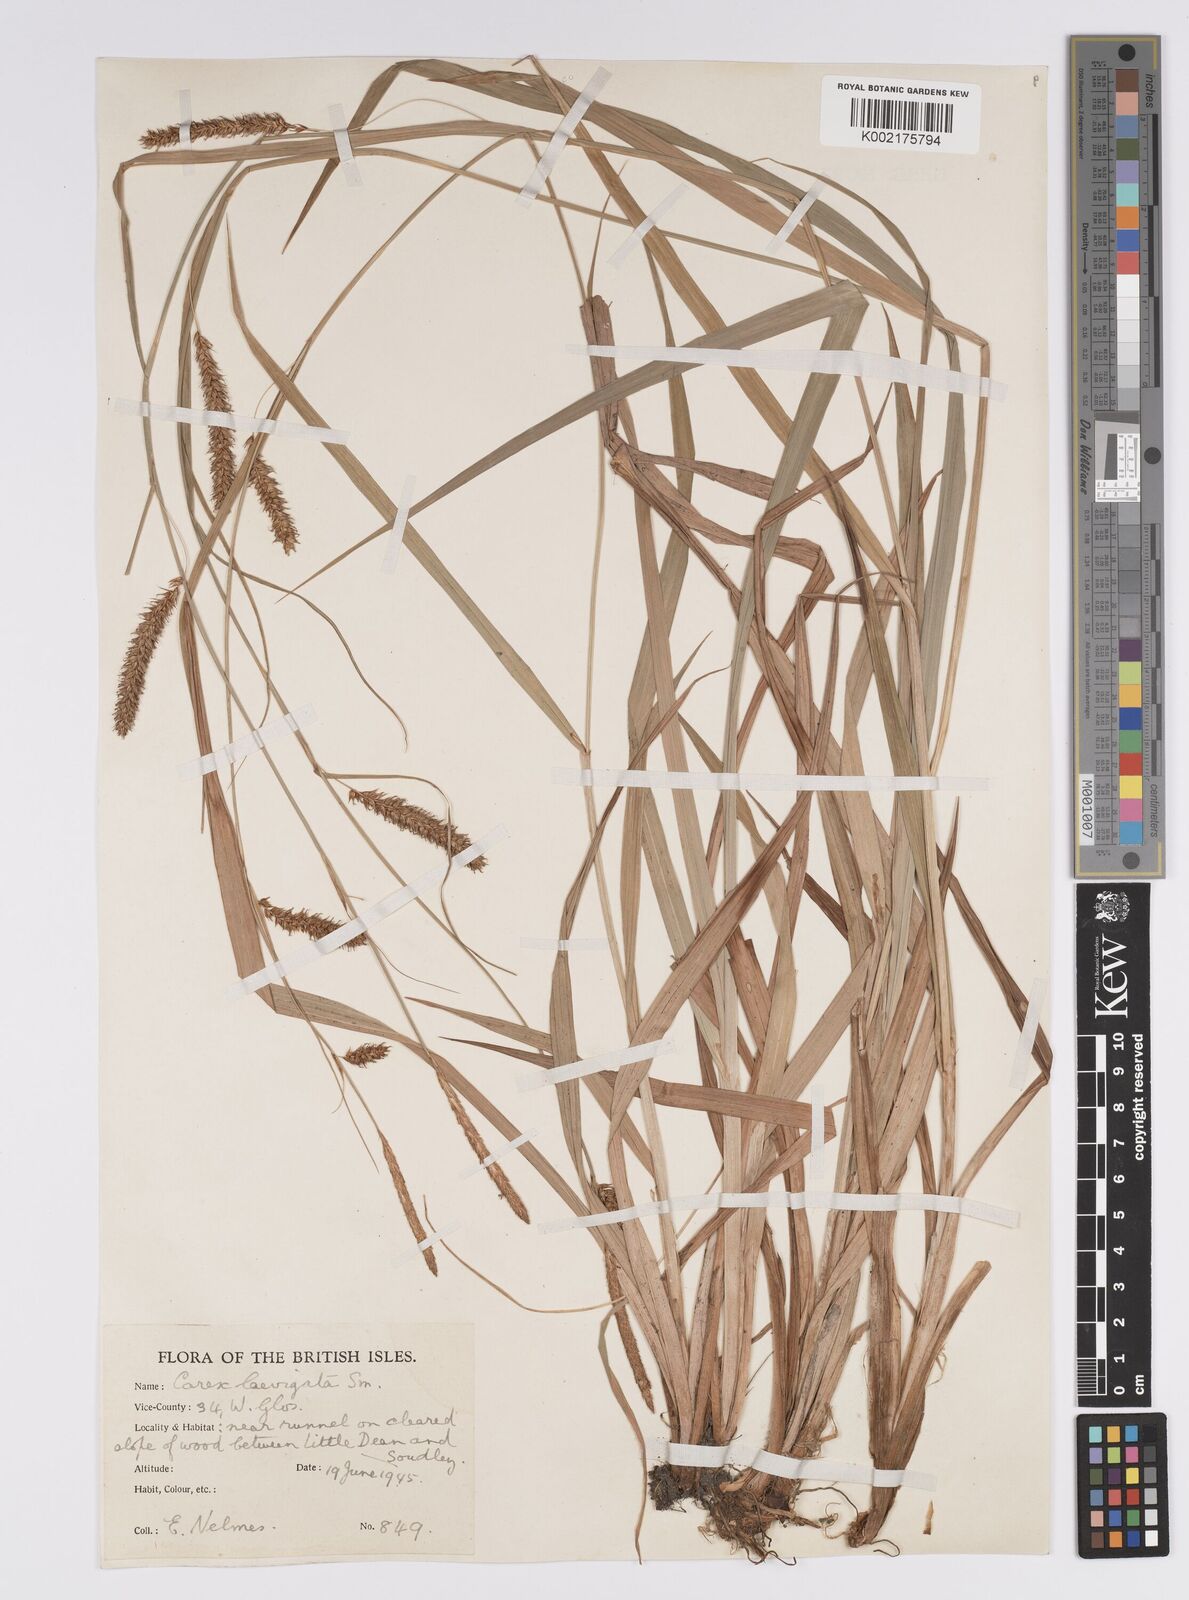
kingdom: Plantae
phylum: Tracheophyta
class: Liliopsida
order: Poales
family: Cyperaceae
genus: Carex
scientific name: Carex laevigata
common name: Smooth-stalked sedge
